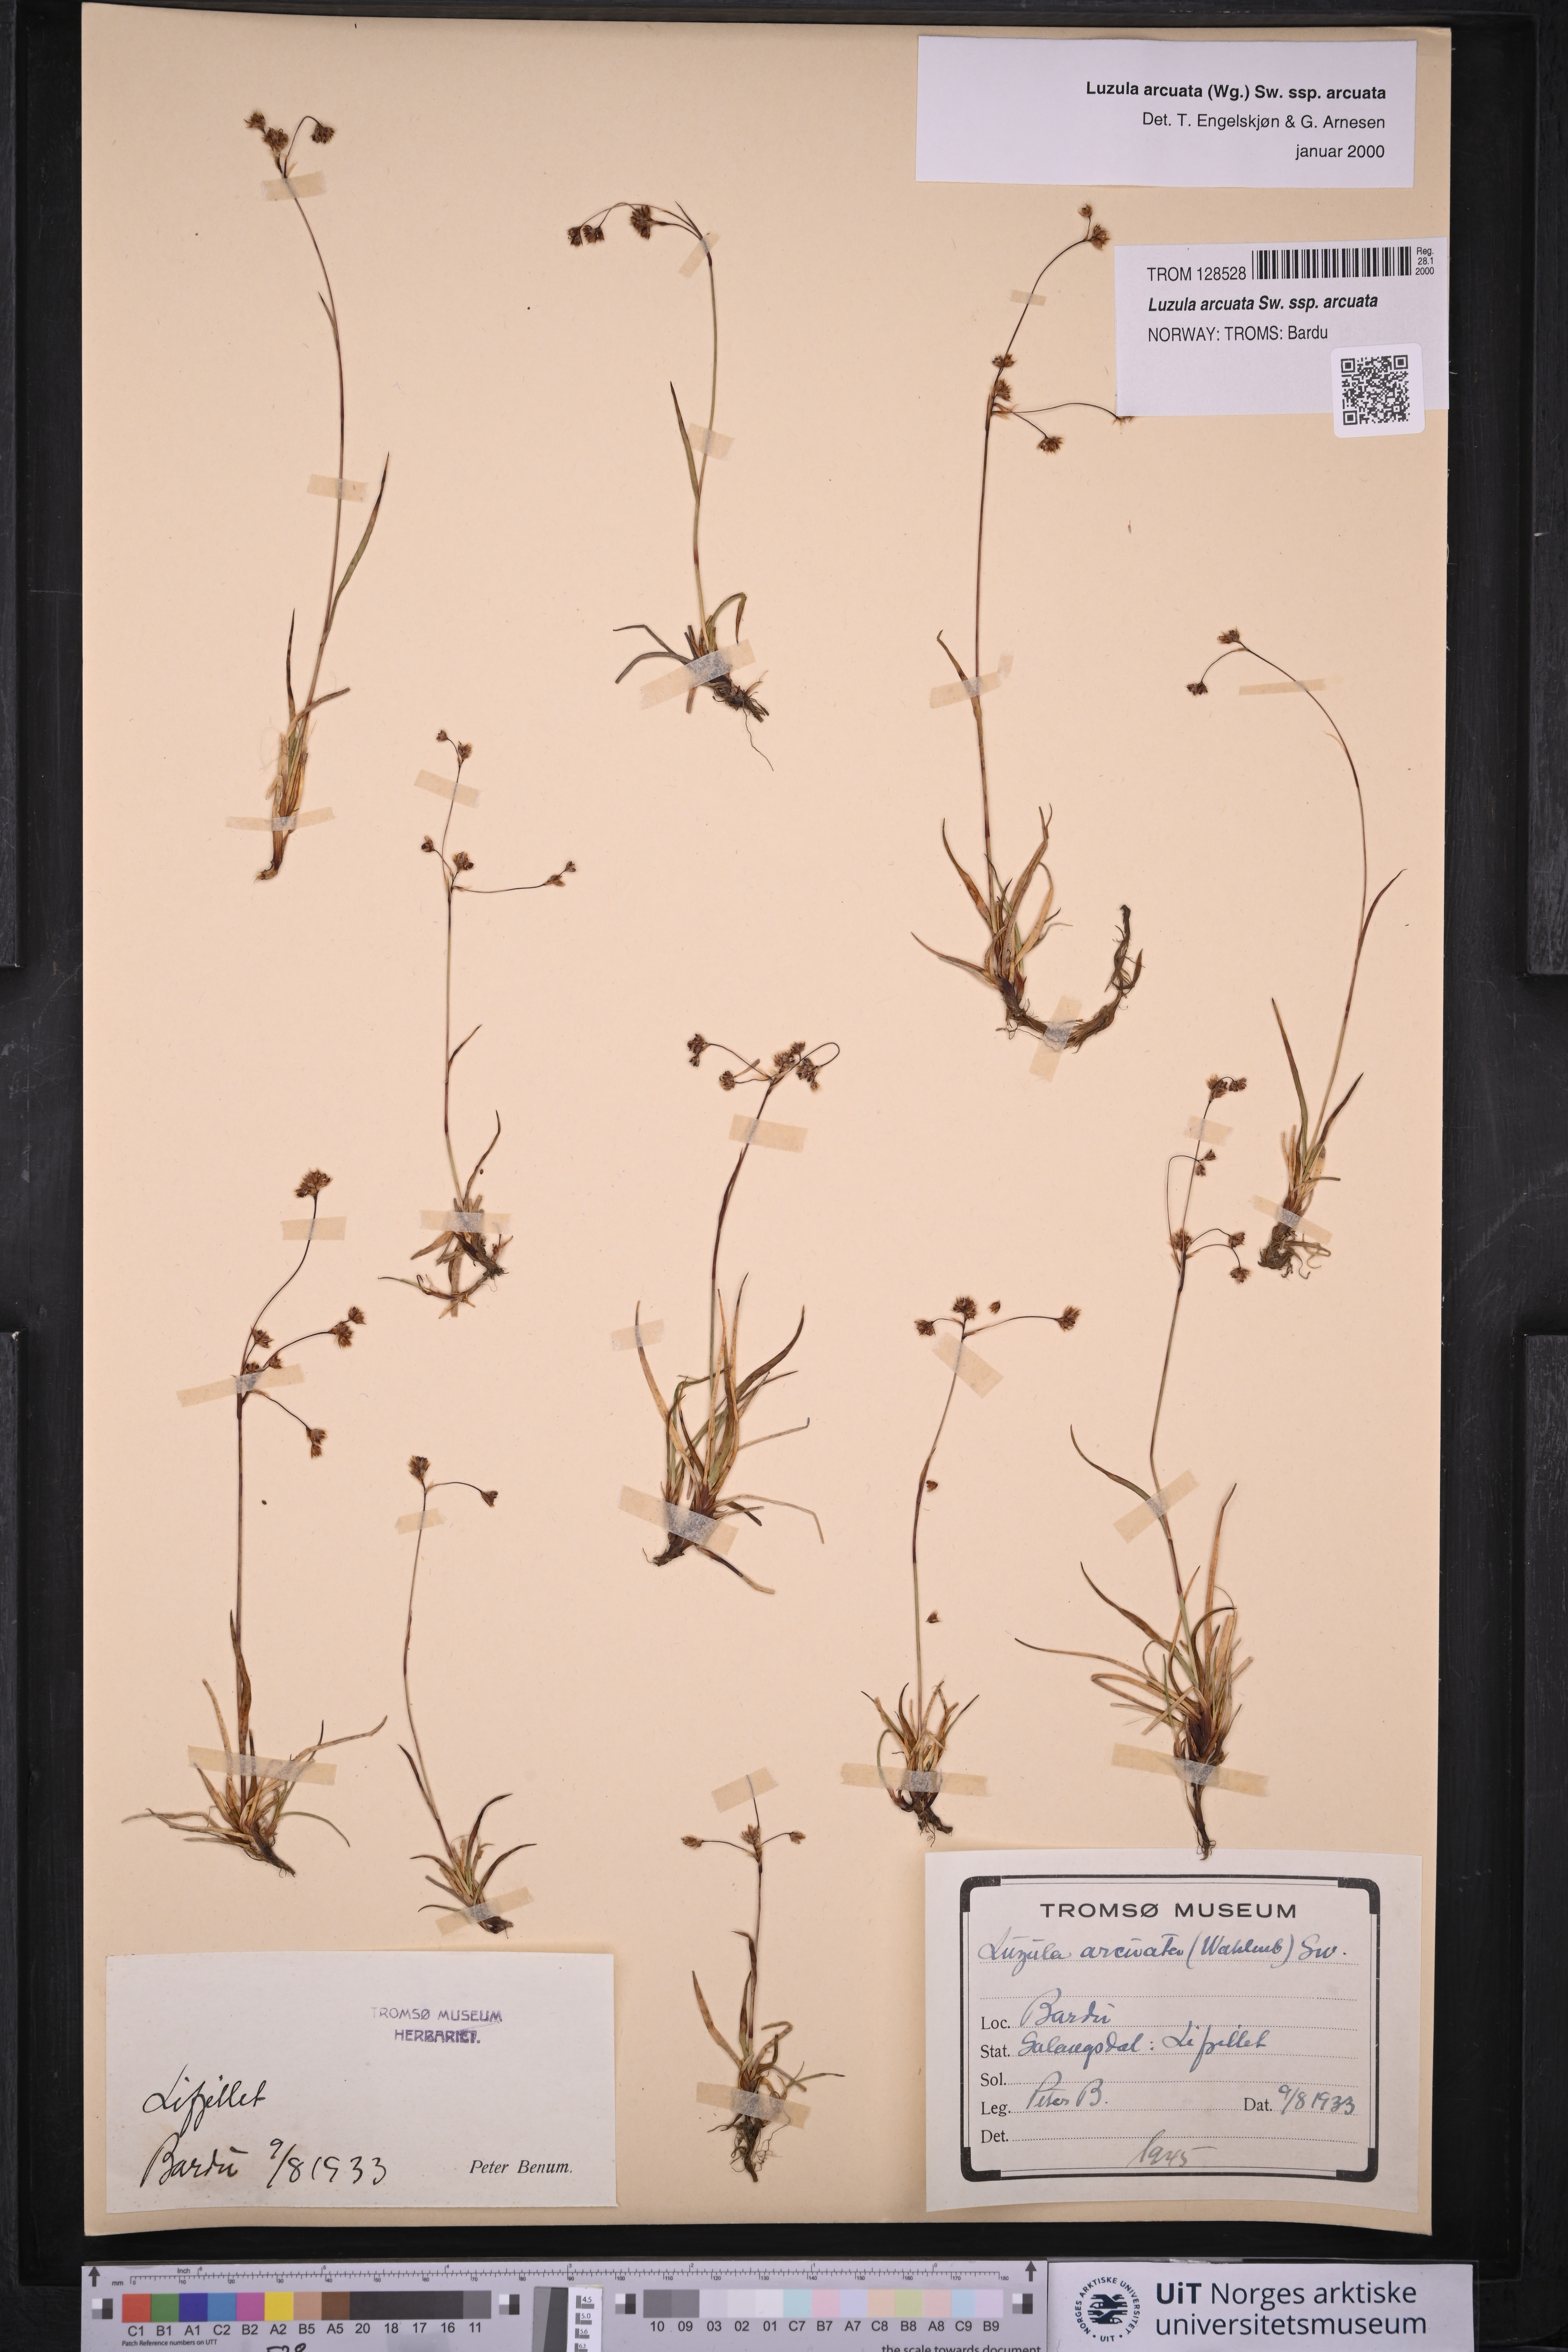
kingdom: Plantae
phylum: Tracheophyta
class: Liliopsida
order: Poales
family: Juncaceae
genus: Luzula
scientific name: Luzula arcuata
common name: Curved wood-rush
